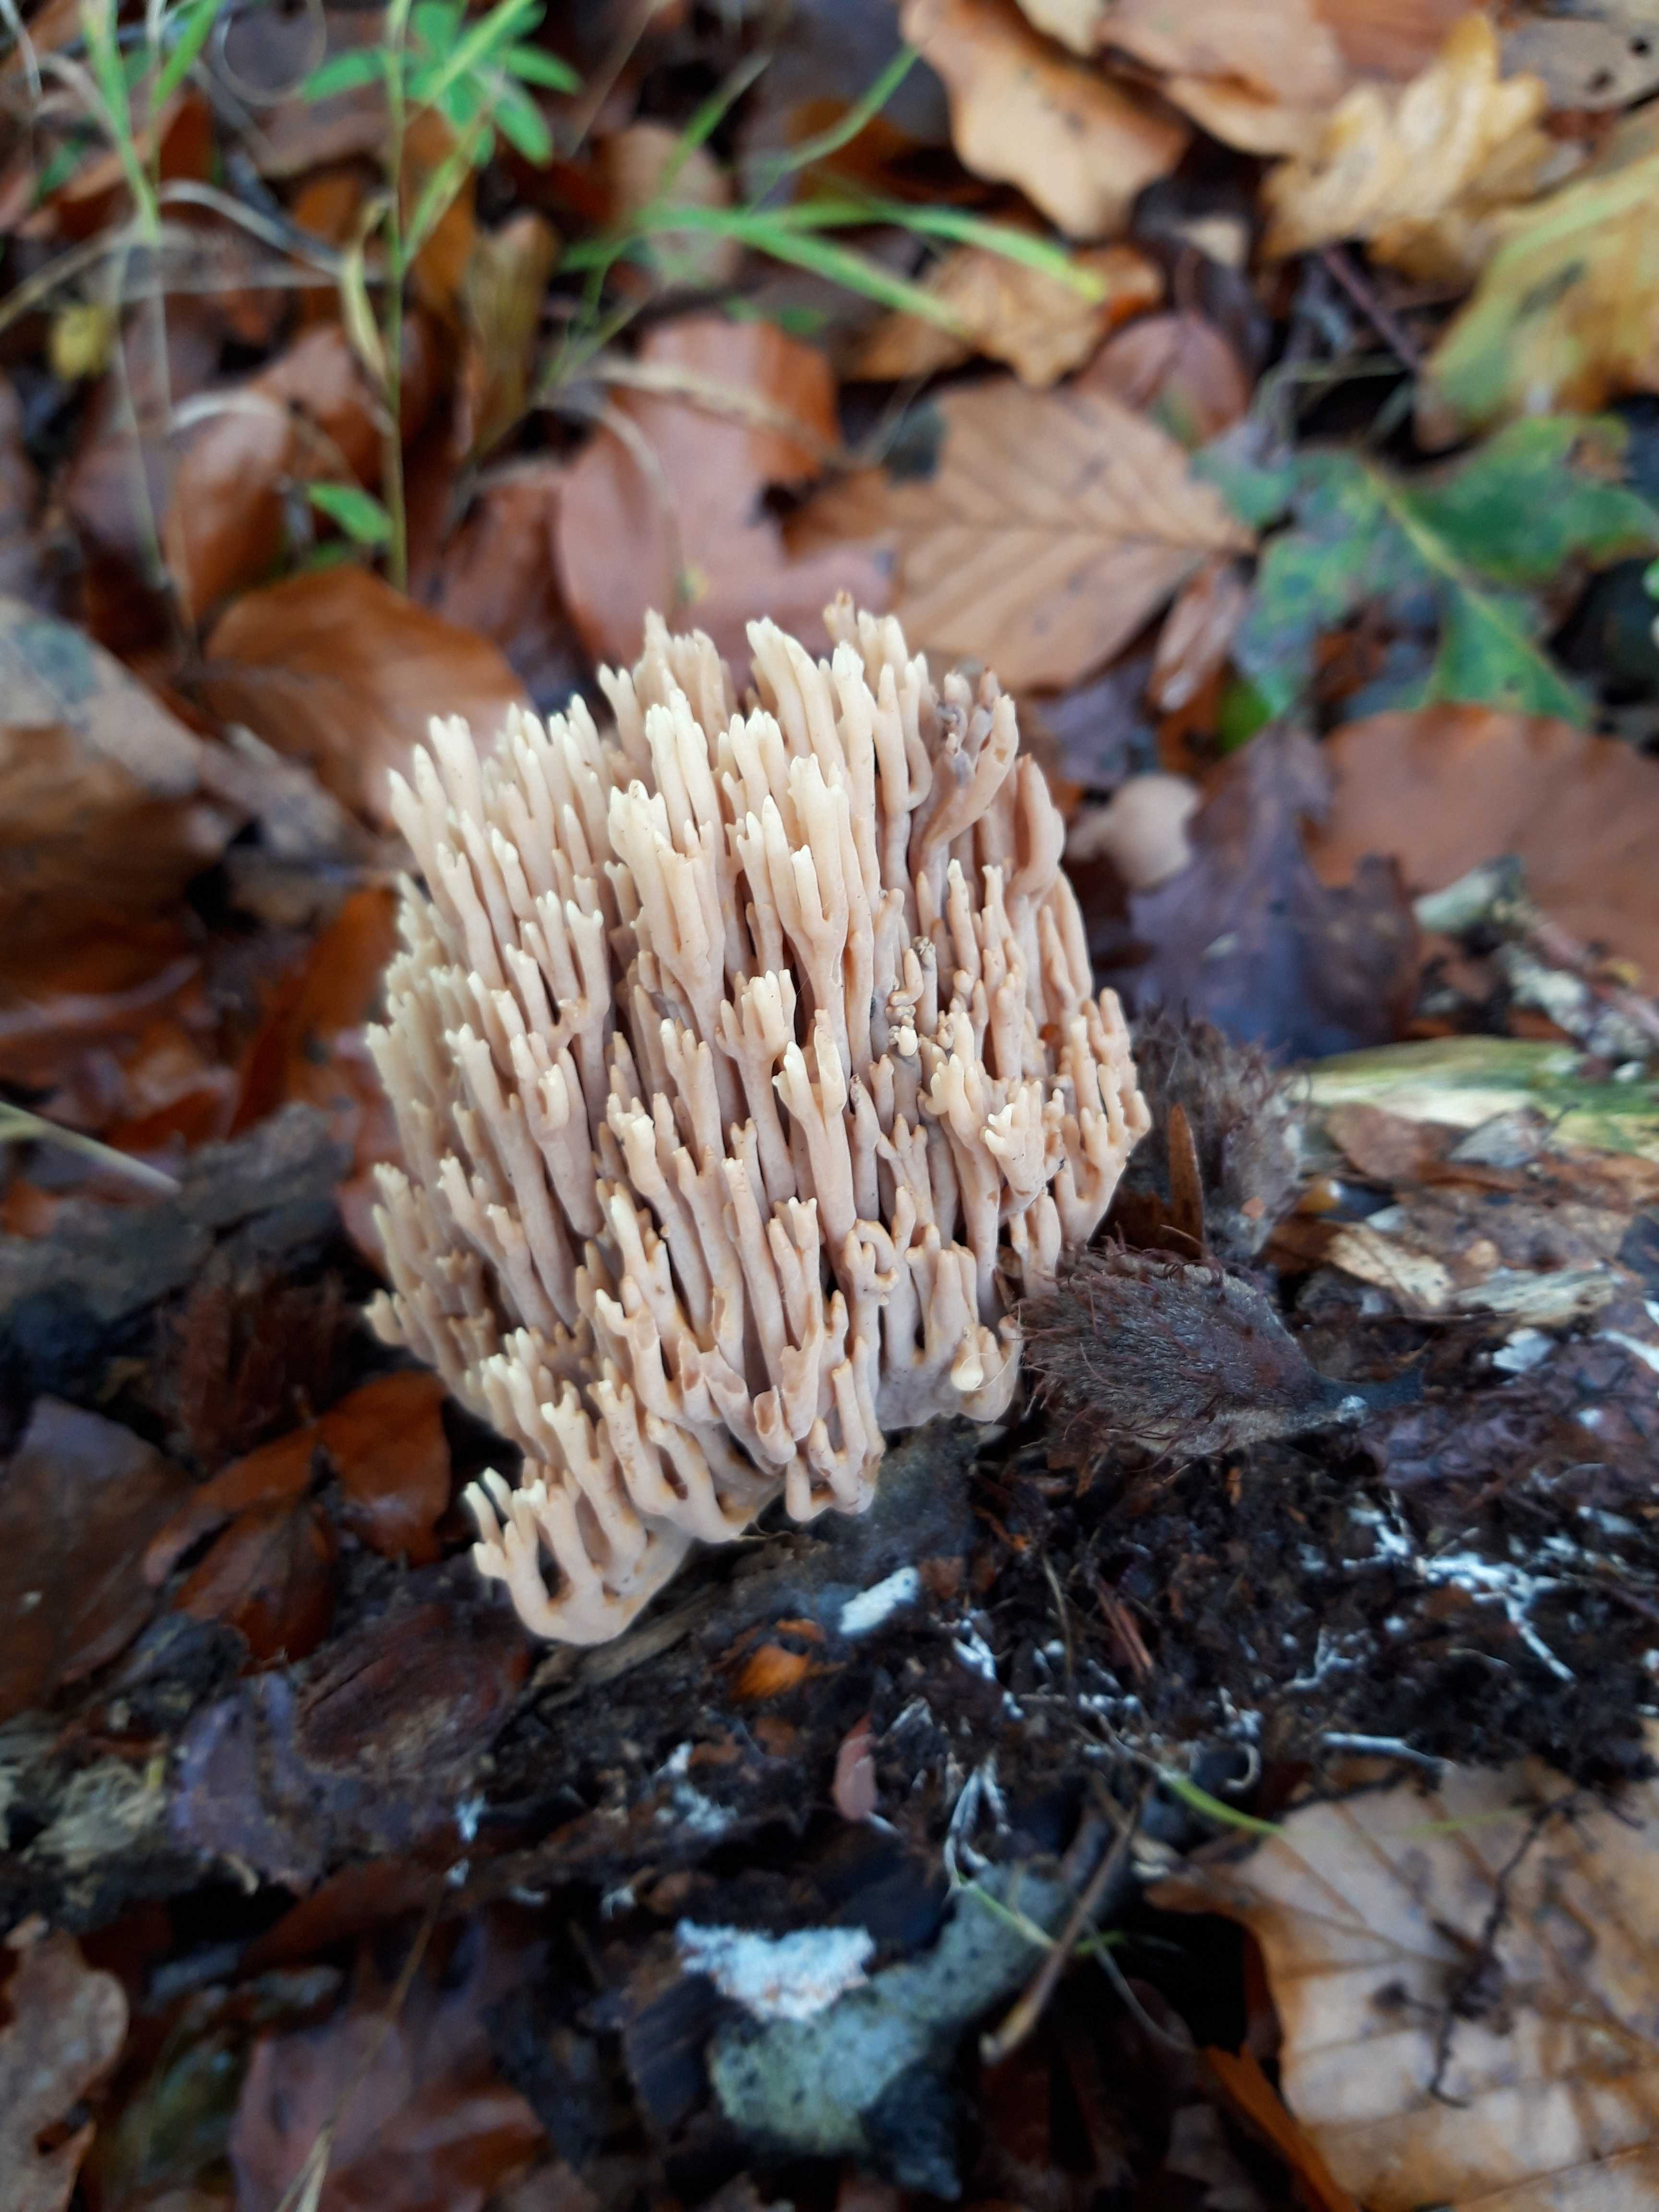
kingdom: Fungi
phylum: Basidiomycota
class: Agaricomycetes
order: Gomphales
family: Gomphaceae
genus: Ramaria
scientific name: Ramaria stricta
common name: rank koralsvamp
